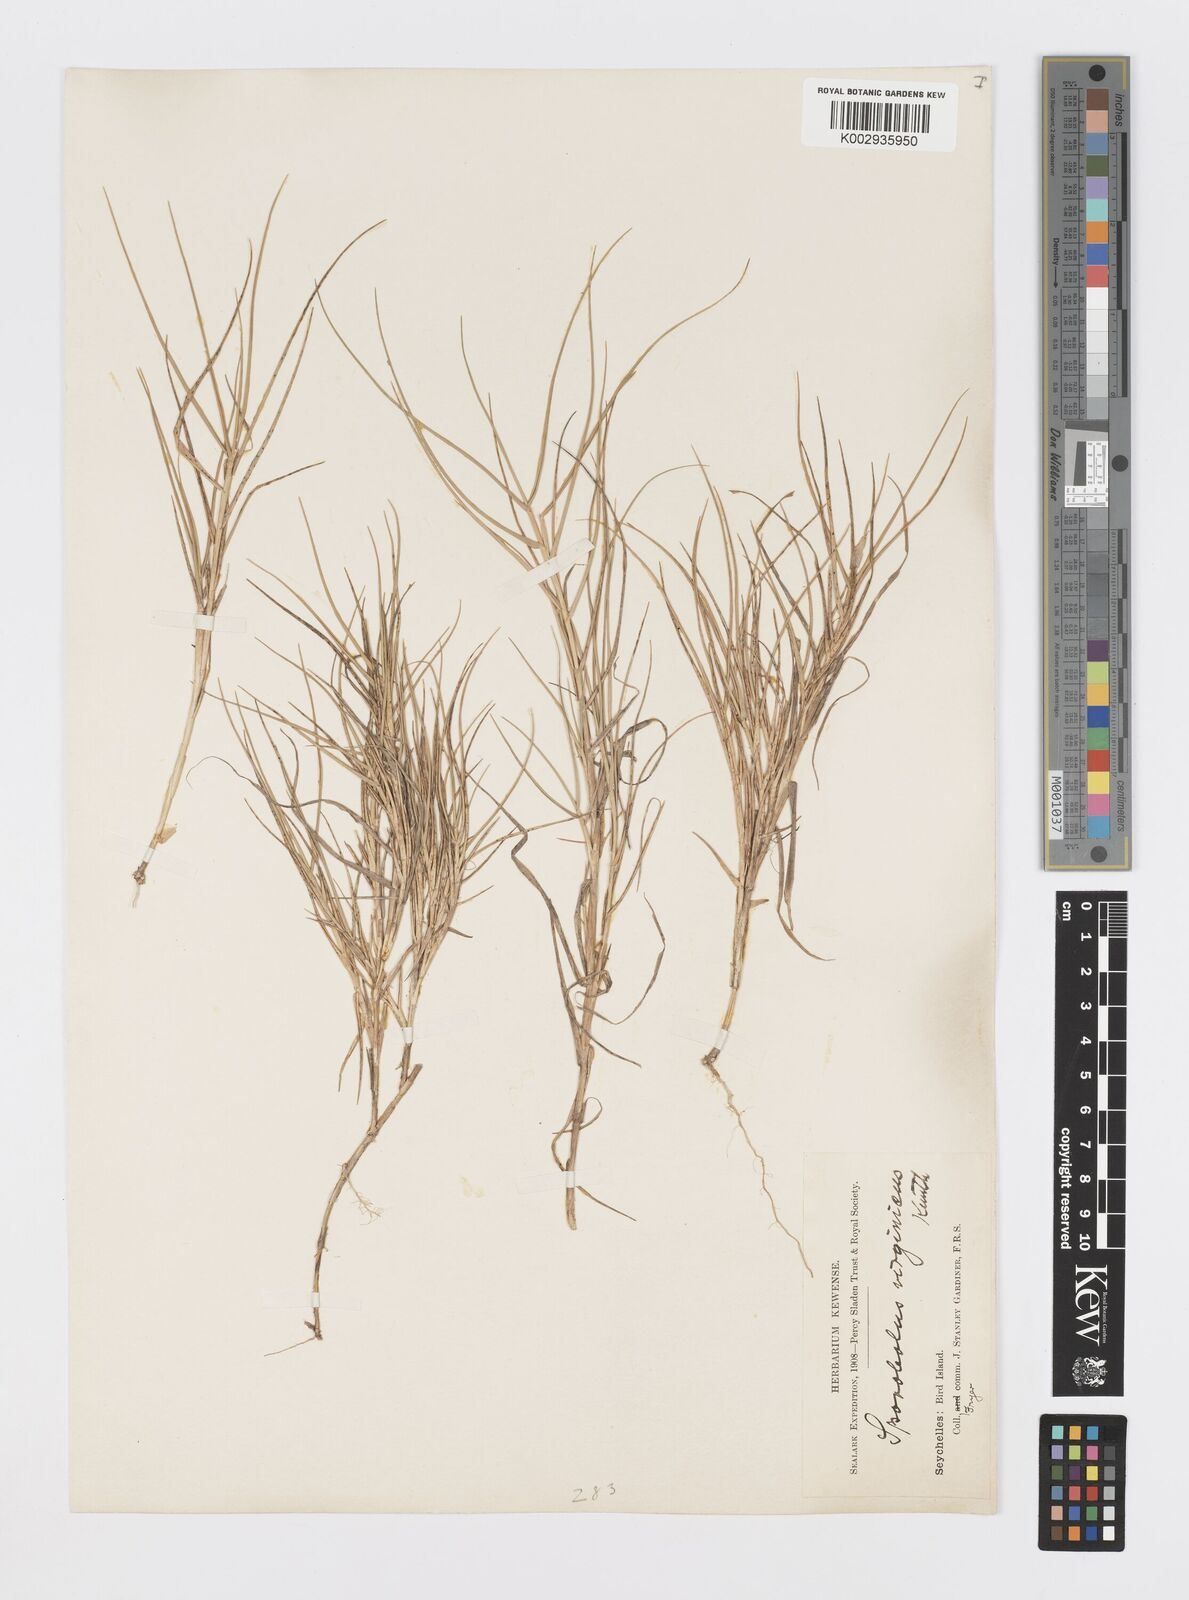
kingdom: Plantae
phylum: Tracheophyta
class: Liliopsida
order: Poales
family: Poaceae
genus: Sporobolus
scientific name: Sporobolus virginicus
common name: Beach dropseed
